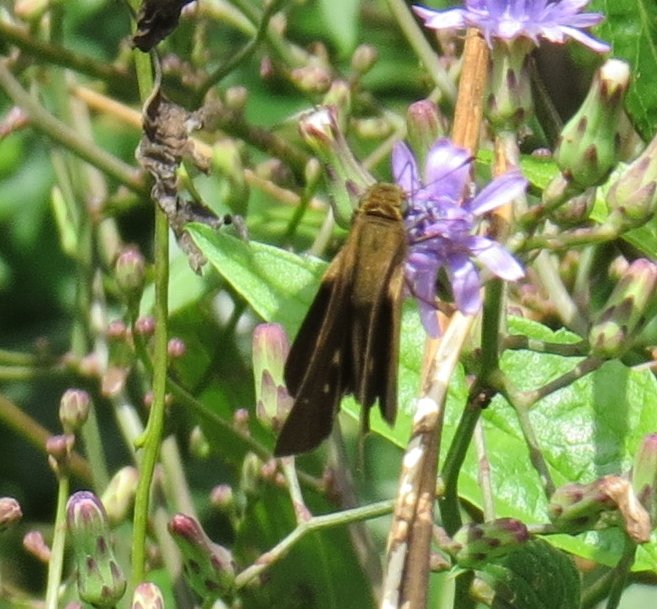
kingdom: Animalia
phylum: Arthropoda
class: Insecta
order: Lepidoptera
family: Hesperiidae
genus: Panoquina
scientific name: Panoquina ocola
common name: Ocola Skipper
